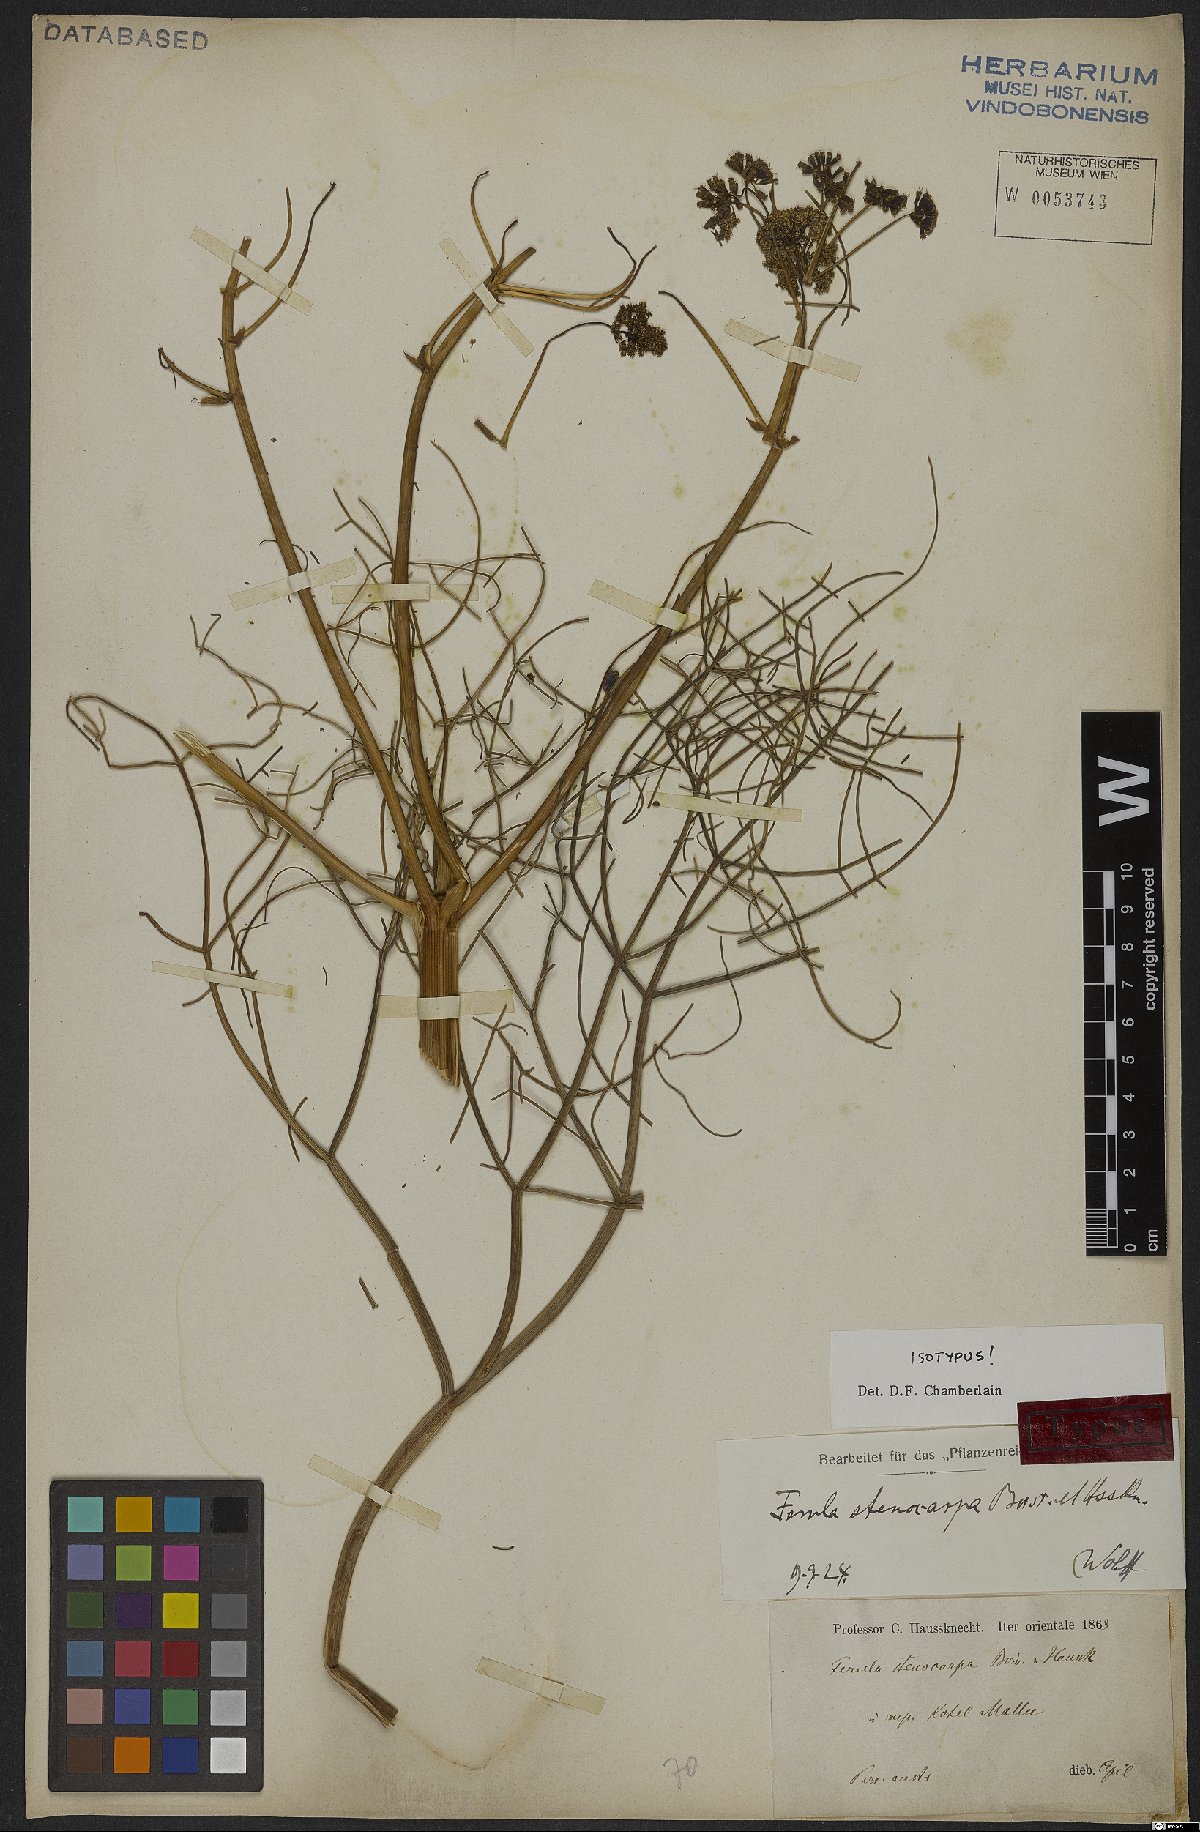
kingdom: Plantae
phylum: Tracheophyta
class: Magnoliopsida
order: Apiales
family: Apiaceae
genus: Ferula
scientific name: Ferula stenocarpa
